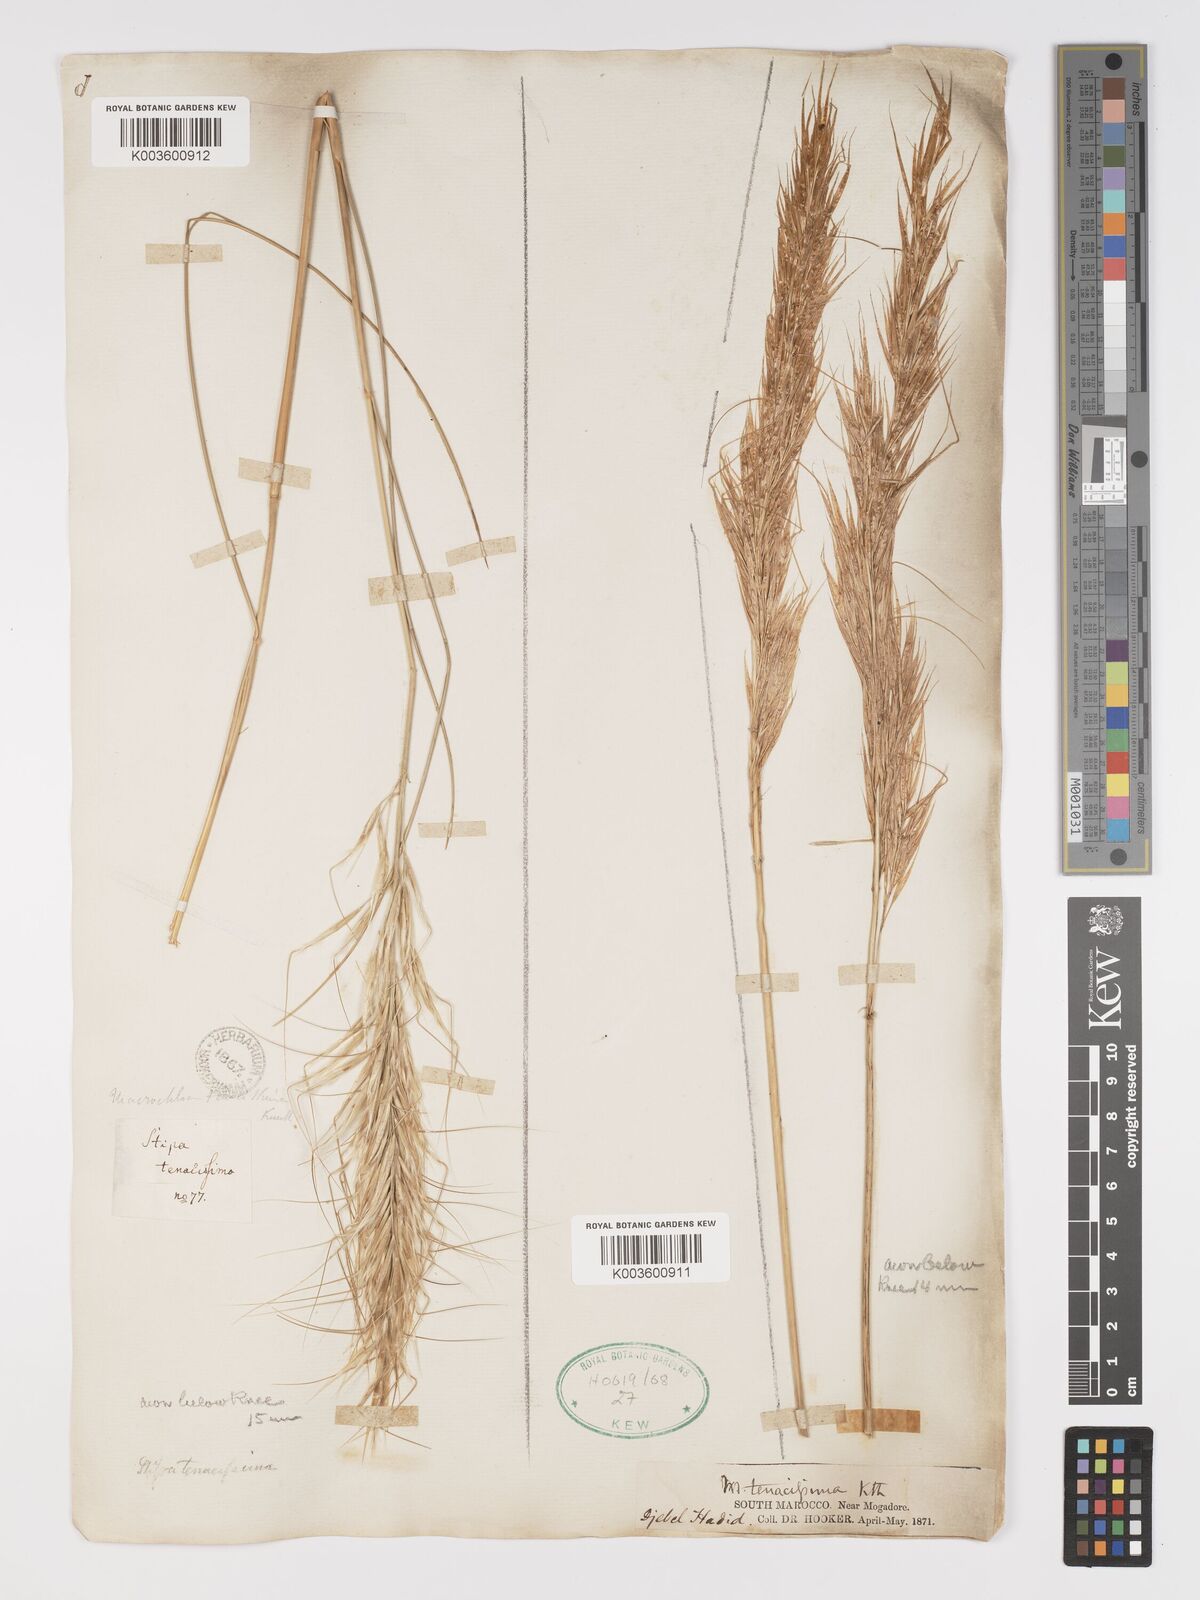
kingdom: Plantae
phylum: Tracheophyta
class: Liliopsida
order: Poales
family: Poaceae
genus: Macrochloa
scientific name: Macrochloa tenacissima
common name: Alfa grass
